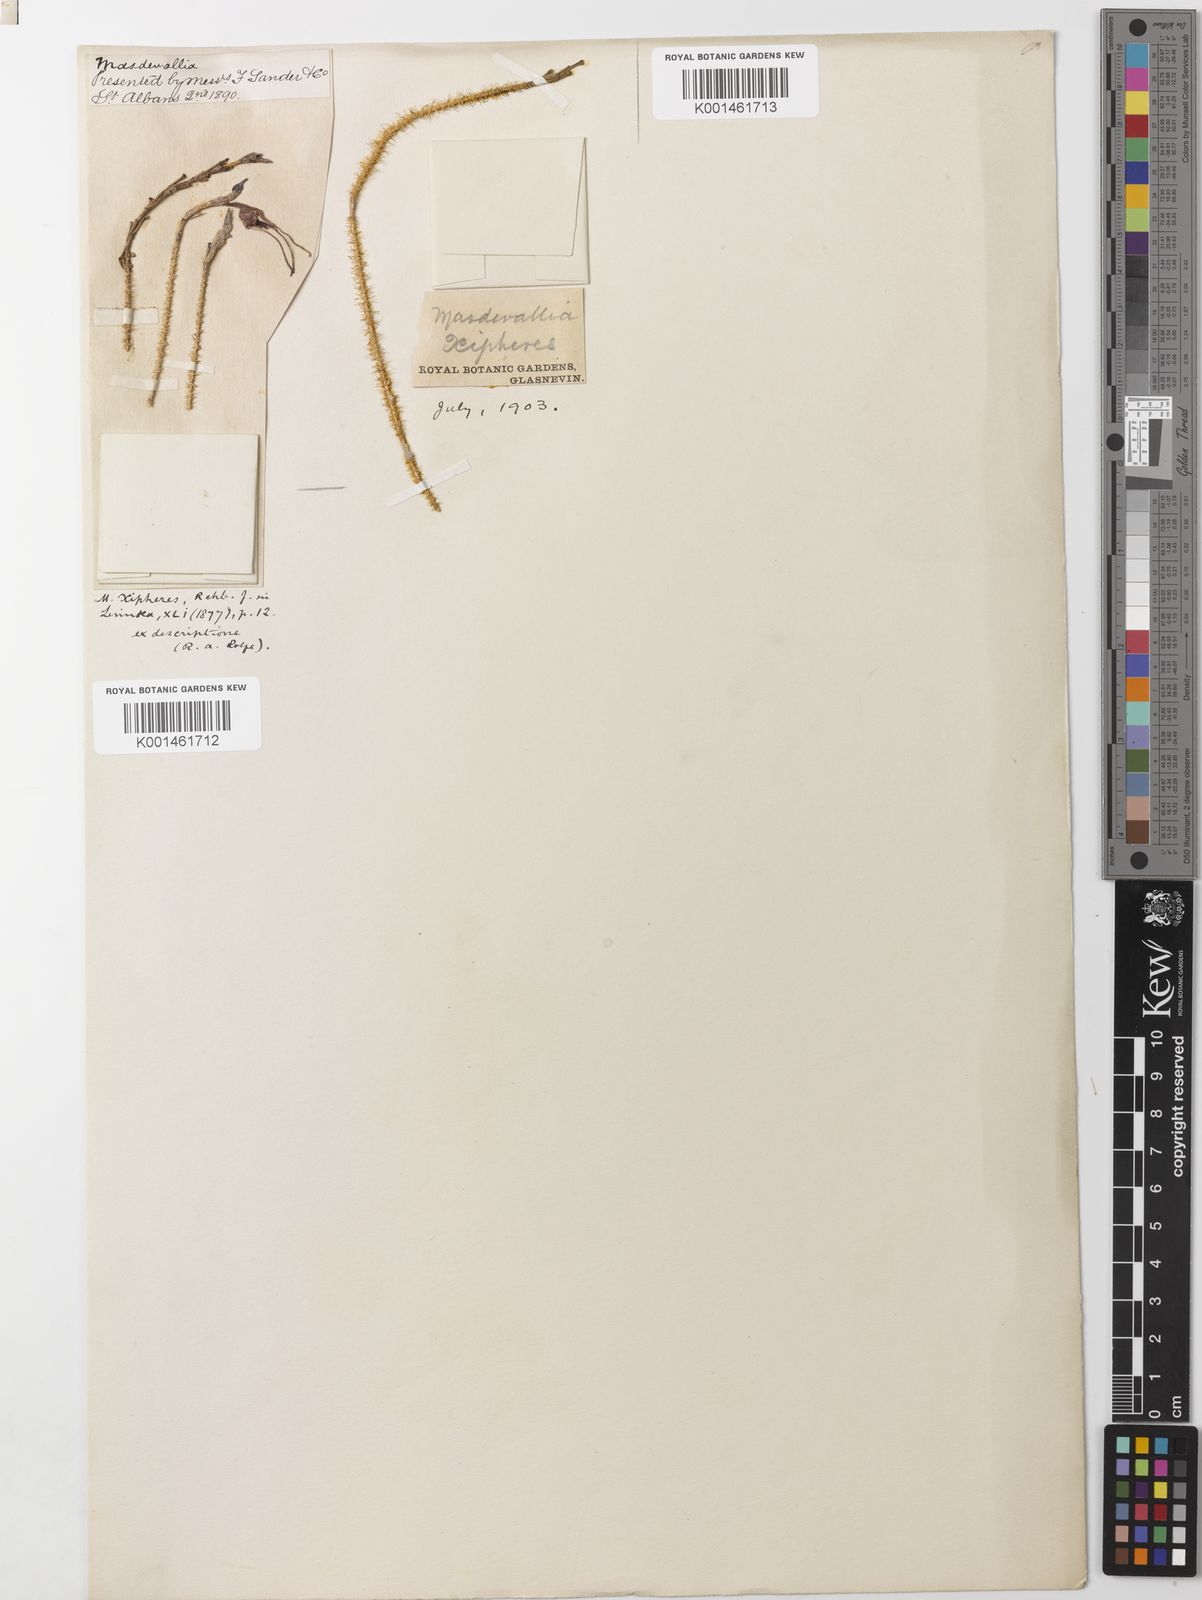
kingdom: Plantae
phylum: Tracheophyta
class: Liliopsida
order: Asparagales
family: Orchidaceae
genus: Porroglossum
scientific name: Porroglossum muscosum
